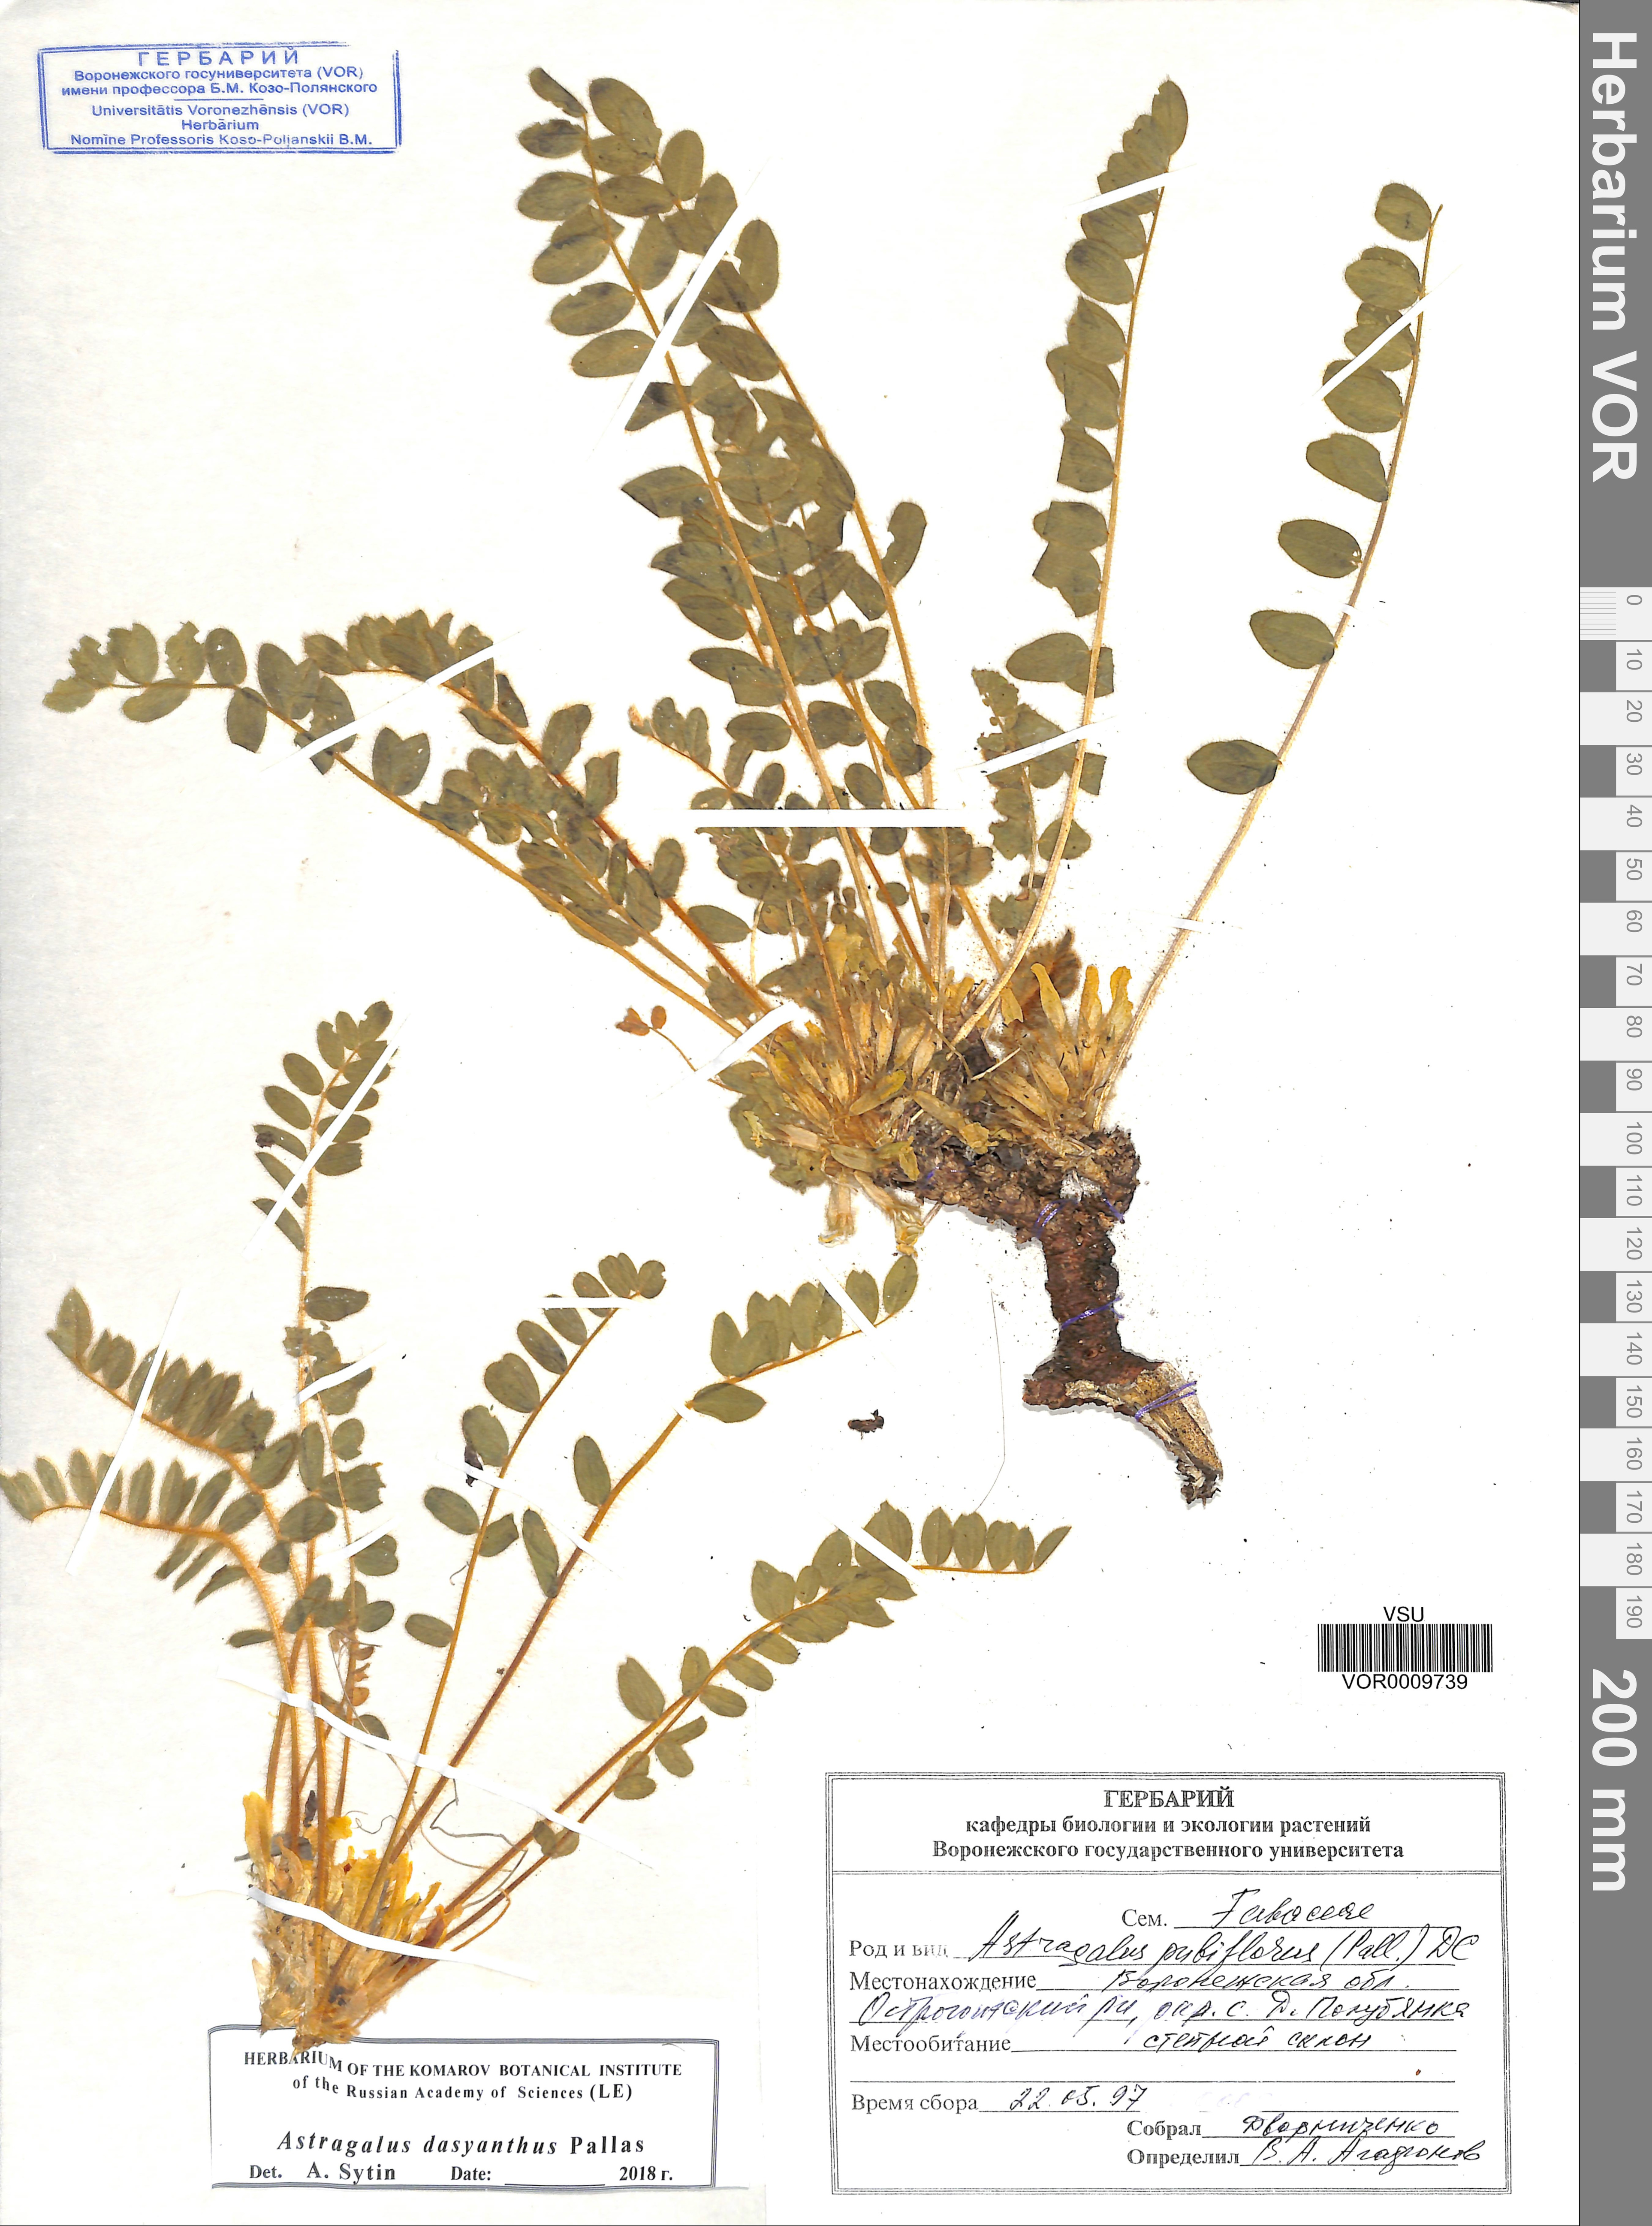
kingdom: Plantae
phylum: Tracheophyta
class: Magnoliopsida
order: Fabales
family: Fabaceae
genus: Astragalus
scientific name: Astragalus dasyanthus
